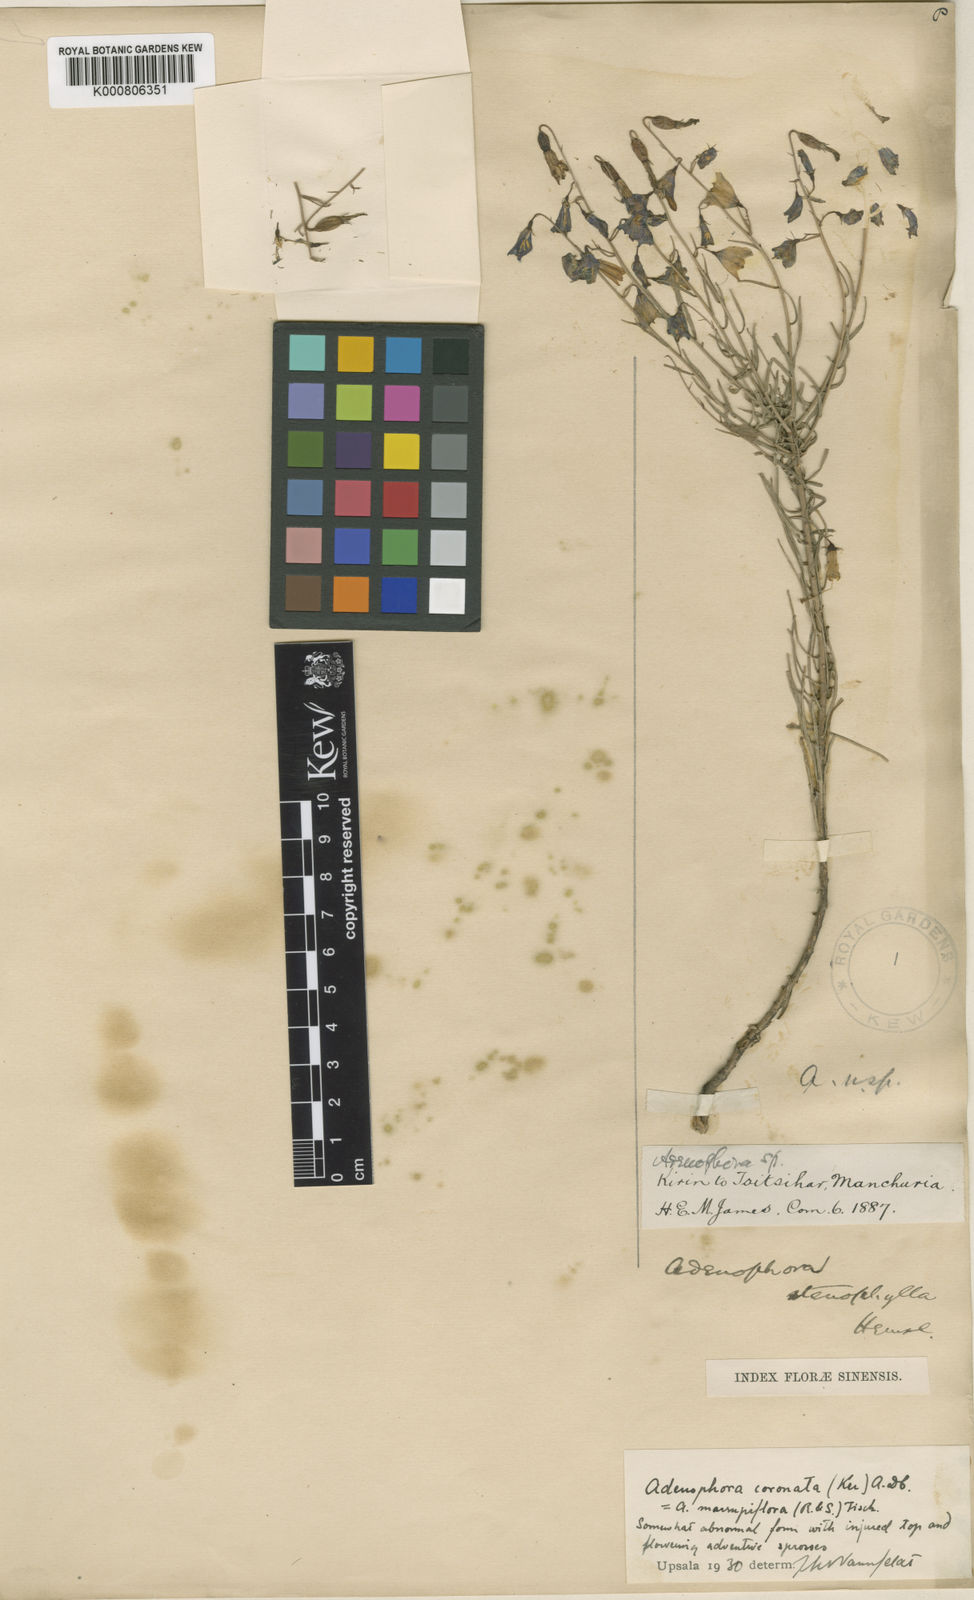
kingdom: Plantae
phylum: Tracheophyta
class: Magnoliopsida
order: Asterales
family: Campanulaceae
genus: Adenophora
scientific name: Adenophora stenophylla
